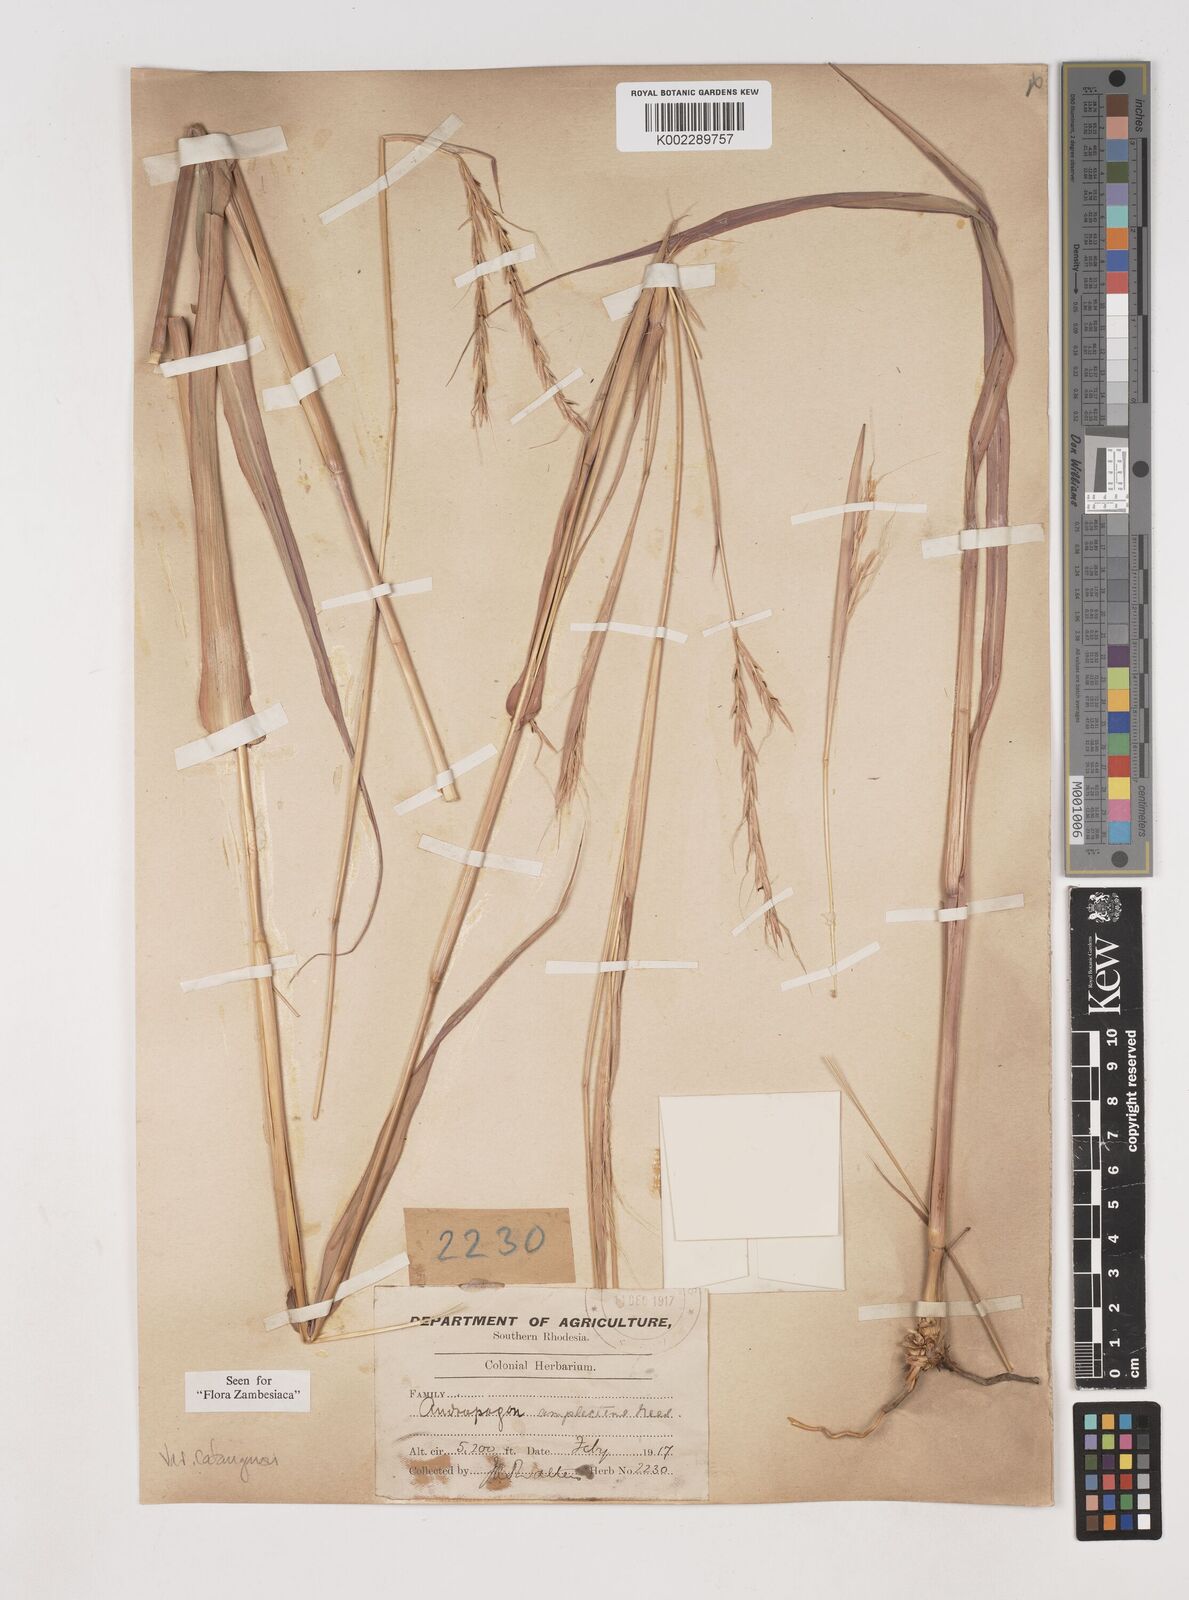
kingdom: Plantae
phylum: Tracheophyta
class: Liliopsida
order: Poales
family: Poaceae
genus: Diheteropogon
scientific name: Diheteropogon amplectens
